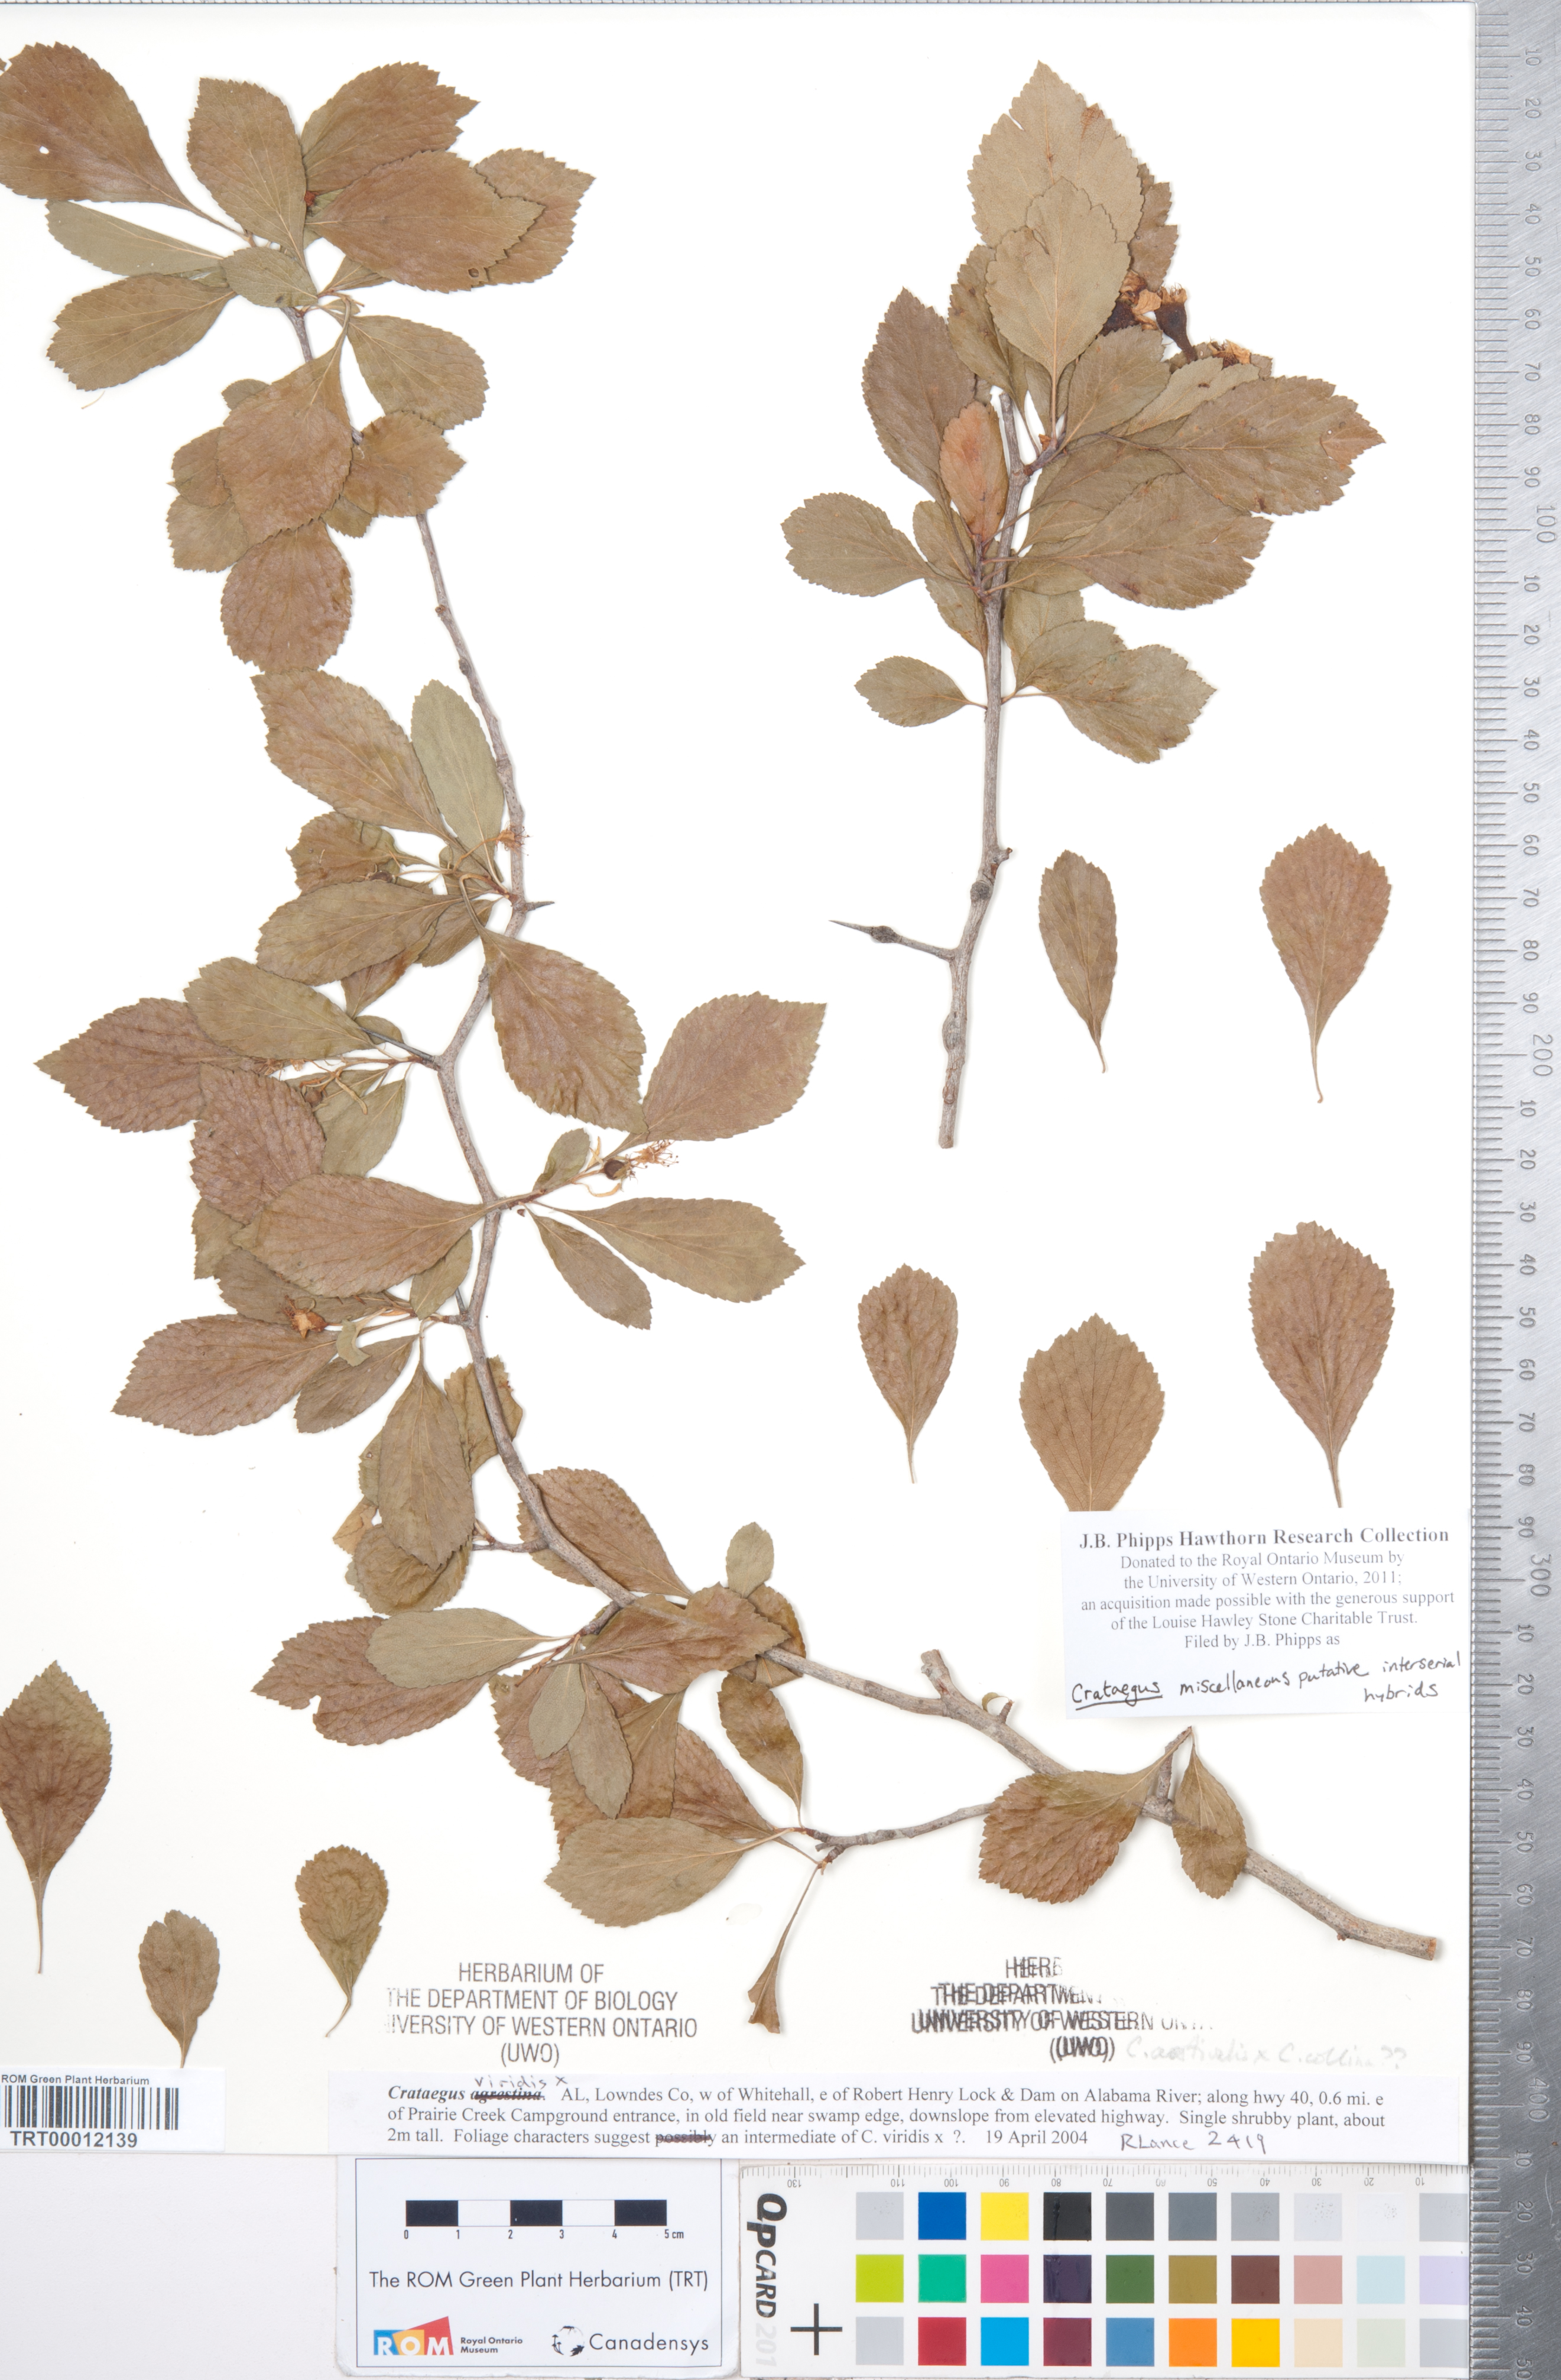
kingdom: Plantae
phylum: Tracheophyta
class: Magnoliopsida
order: Rosales
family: Rosaceae
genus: Crataegus
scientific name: Crataegus
